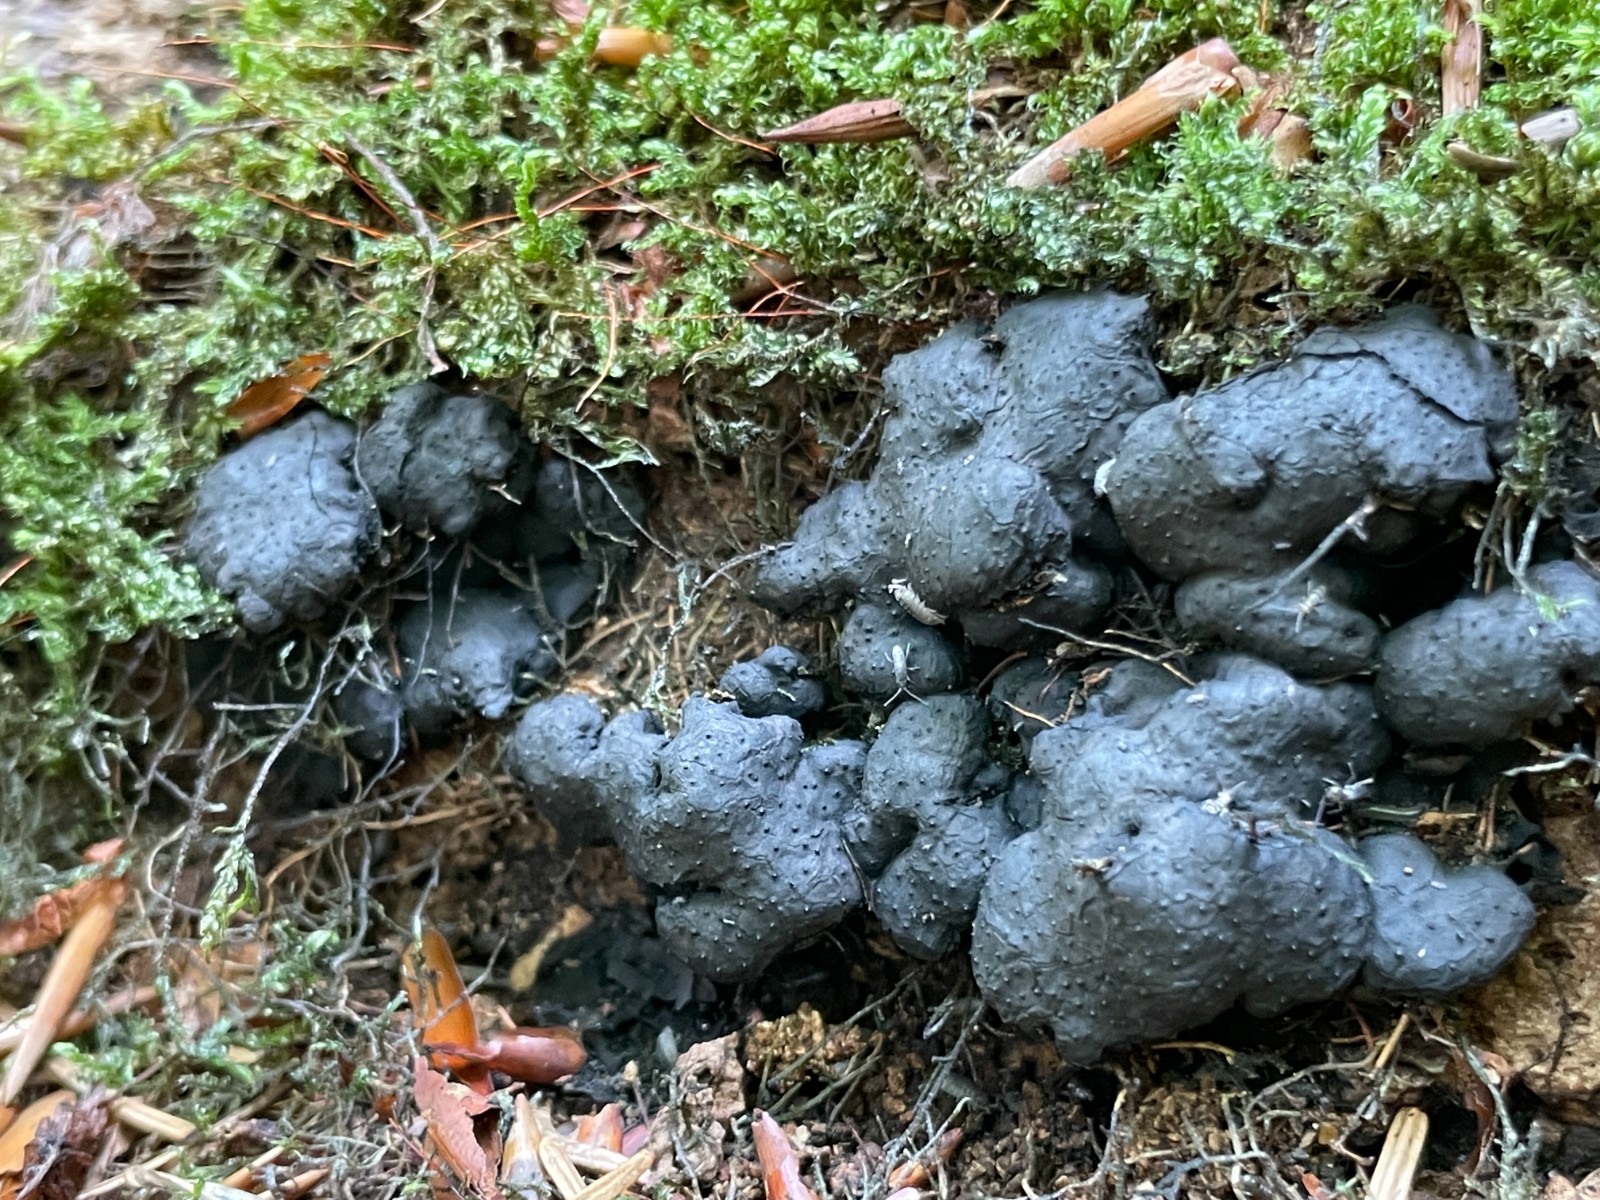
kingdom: Fungi
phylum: Ascomycota
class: Sordariomycetes
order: Xylariales
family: Xylariaceae
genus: Kretzschmaria
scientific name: Kretzschmaria deusta
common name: stor kulsvamp
